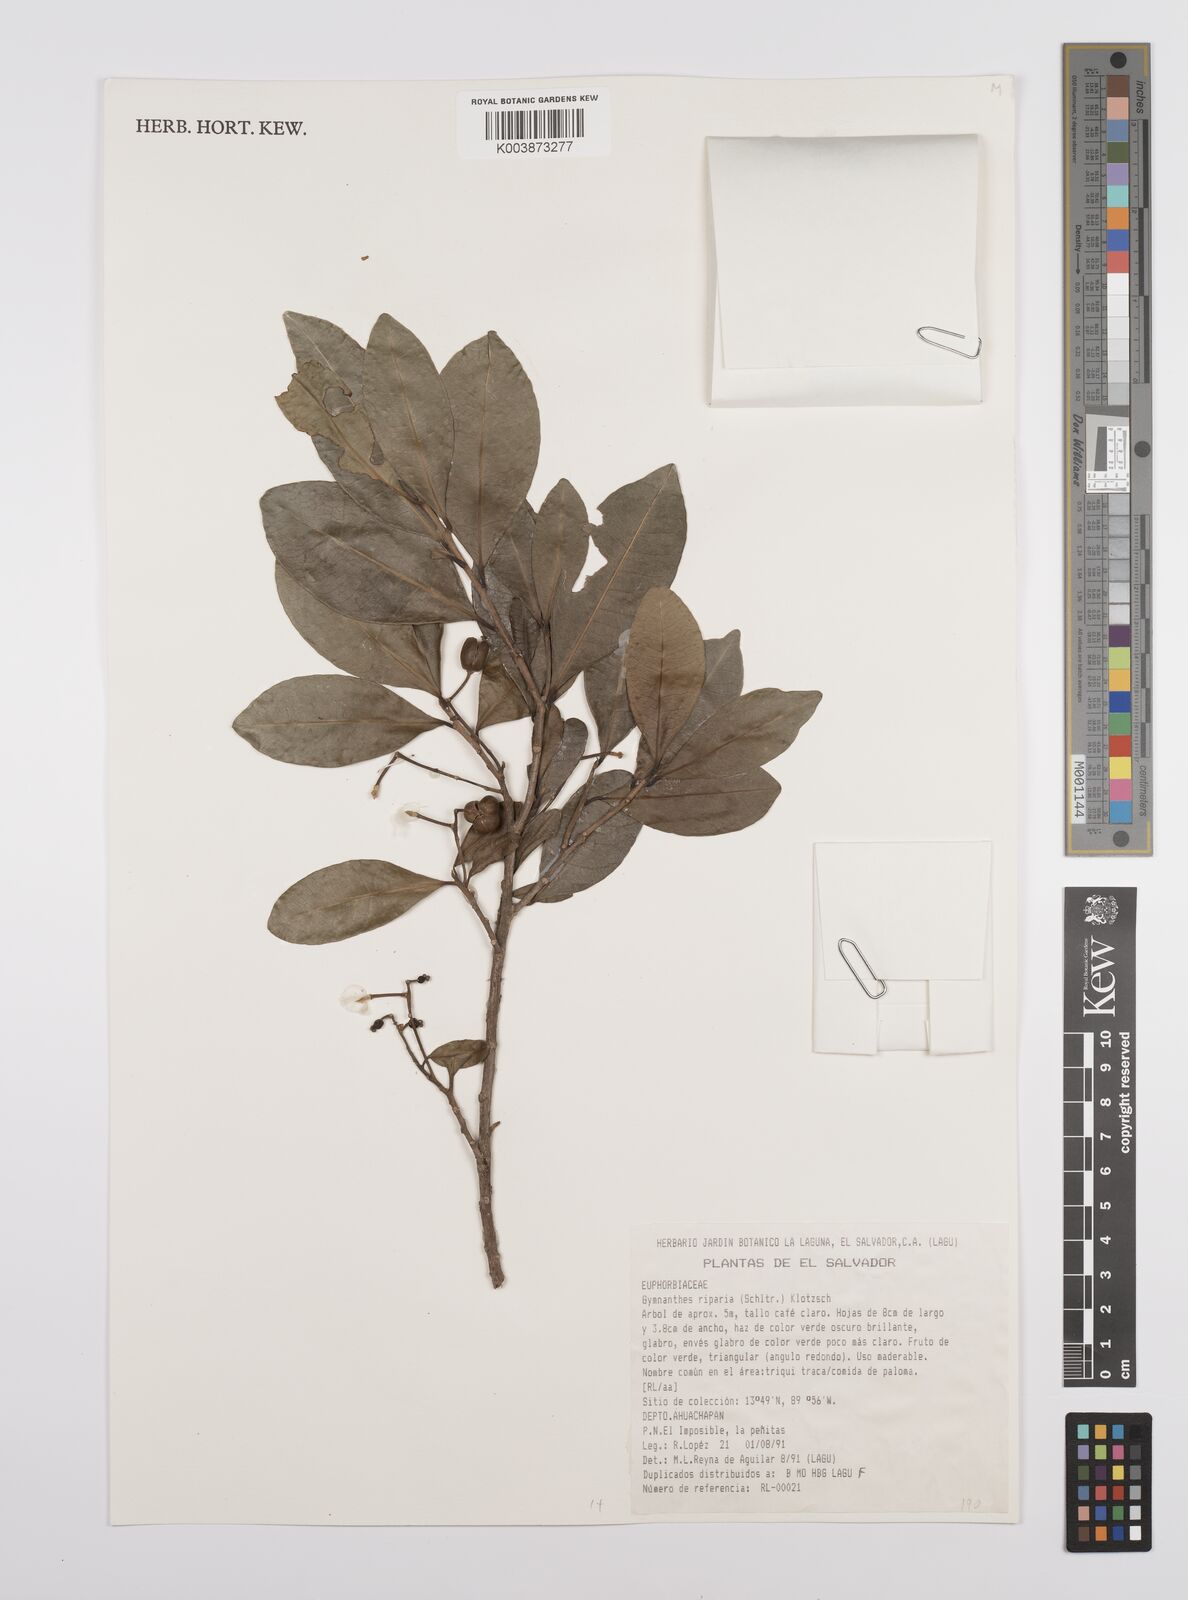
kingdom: Plantae
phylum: Tracheophyta
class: Magnoliopsida
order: Malpighiales
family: Euphorbiaceae
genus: Gymnanthes
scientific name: Gymnanthes riparia
